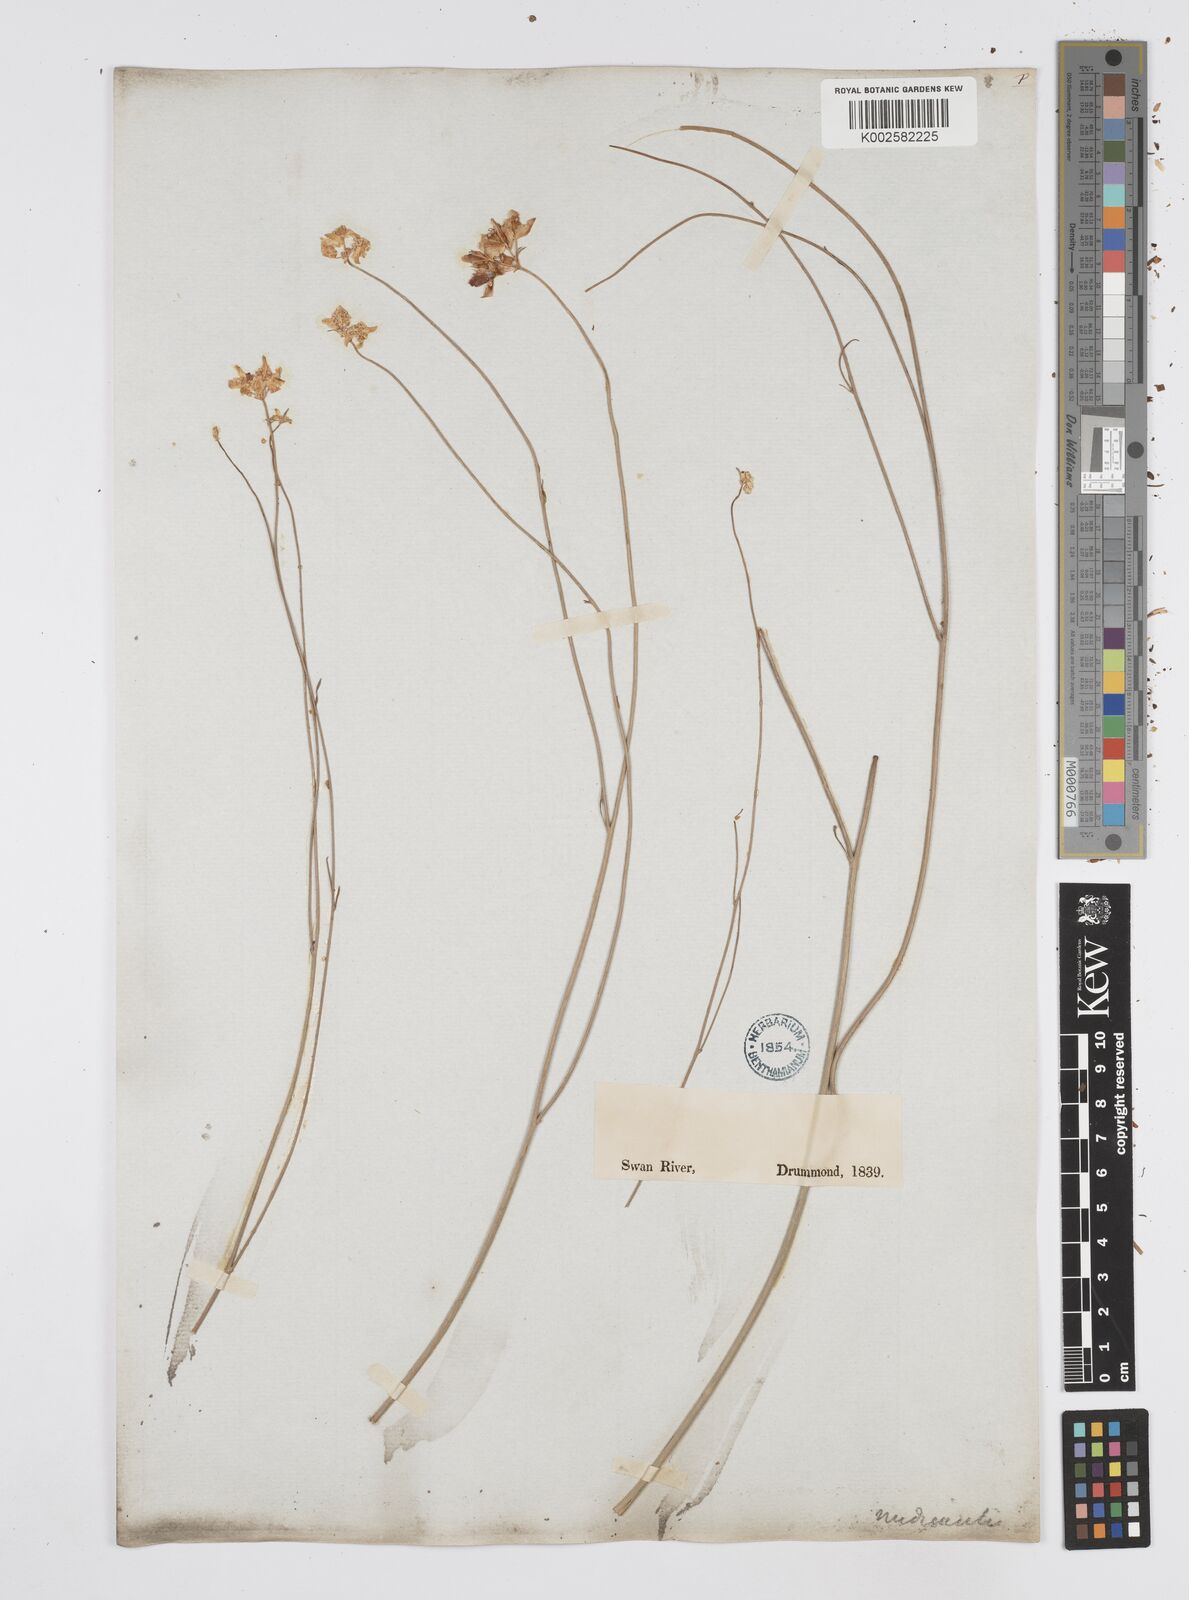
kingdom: Plantae
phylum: Tracheophyta
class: Magnoliopsida
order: Apiales
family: Apiaceae
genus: Xanthosia
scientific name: Xanthosia atkinsoniana
